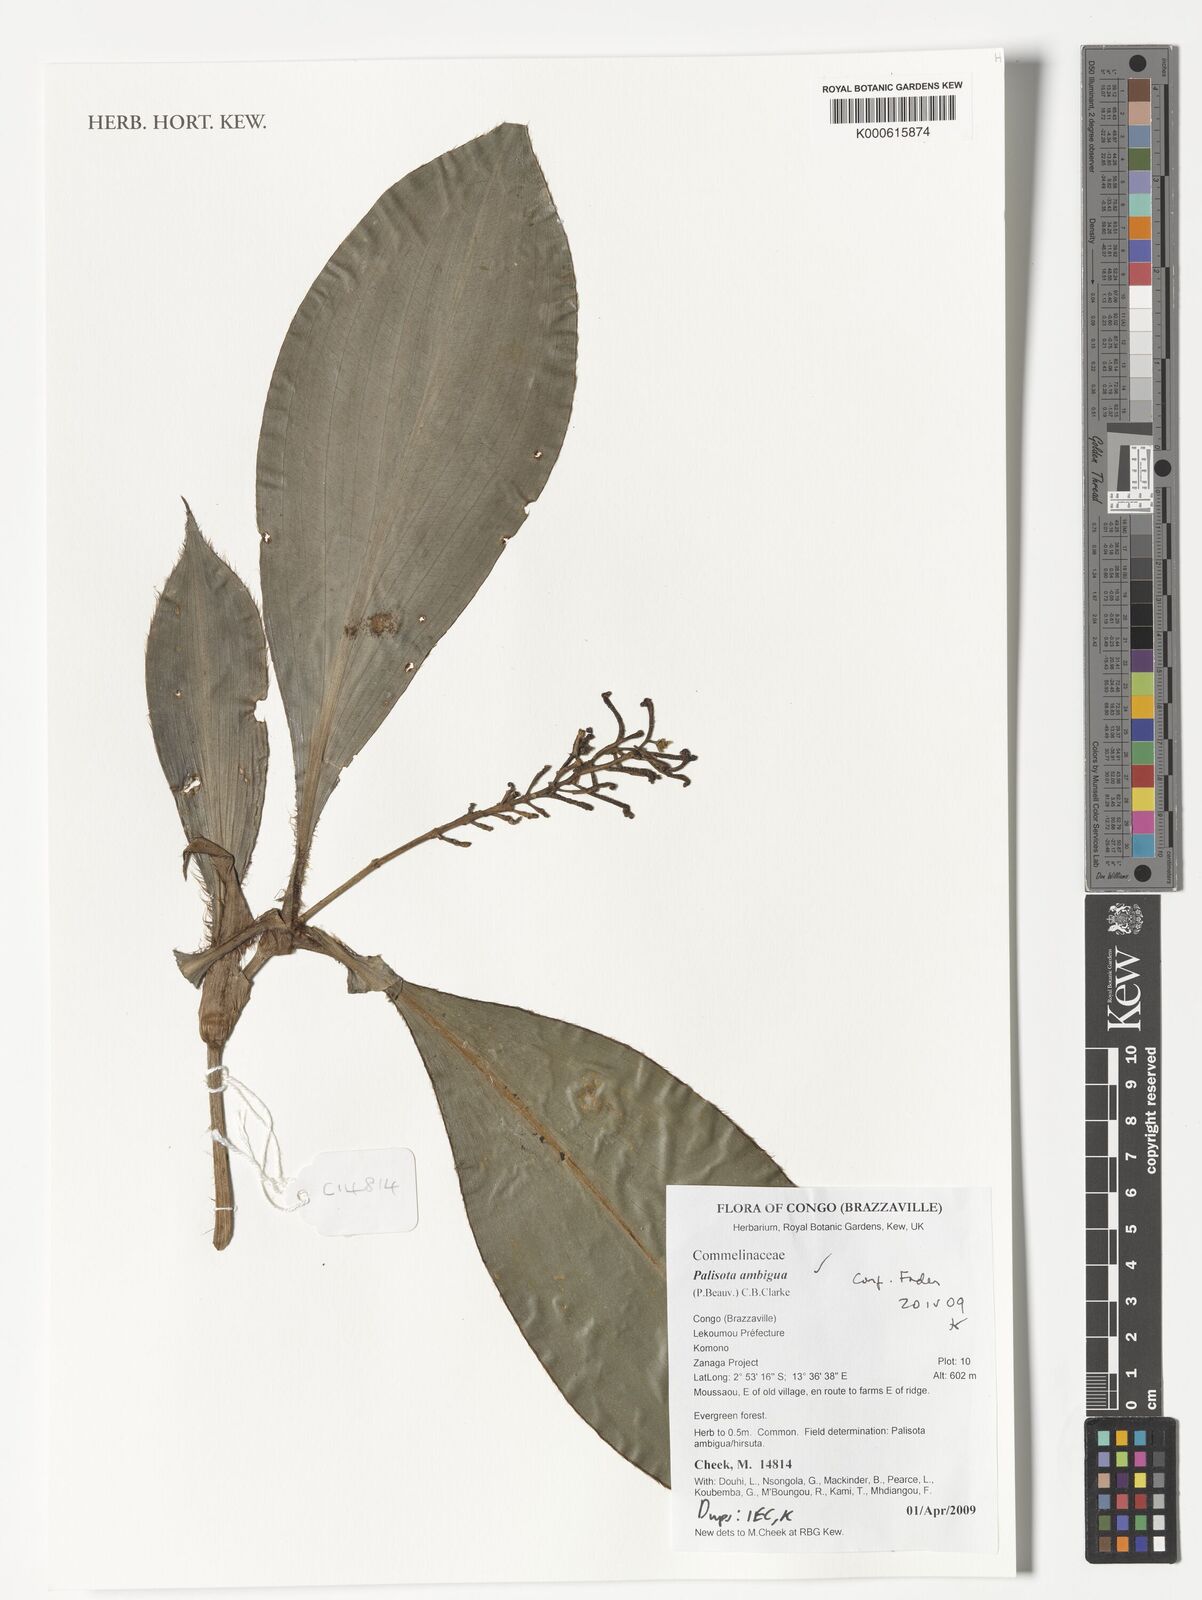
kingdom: Plantae
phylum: Tracheophyta
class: Liliopsida
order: Commelinales
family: Commelinaceae
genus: Palisota
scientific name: Palisota ambigua
